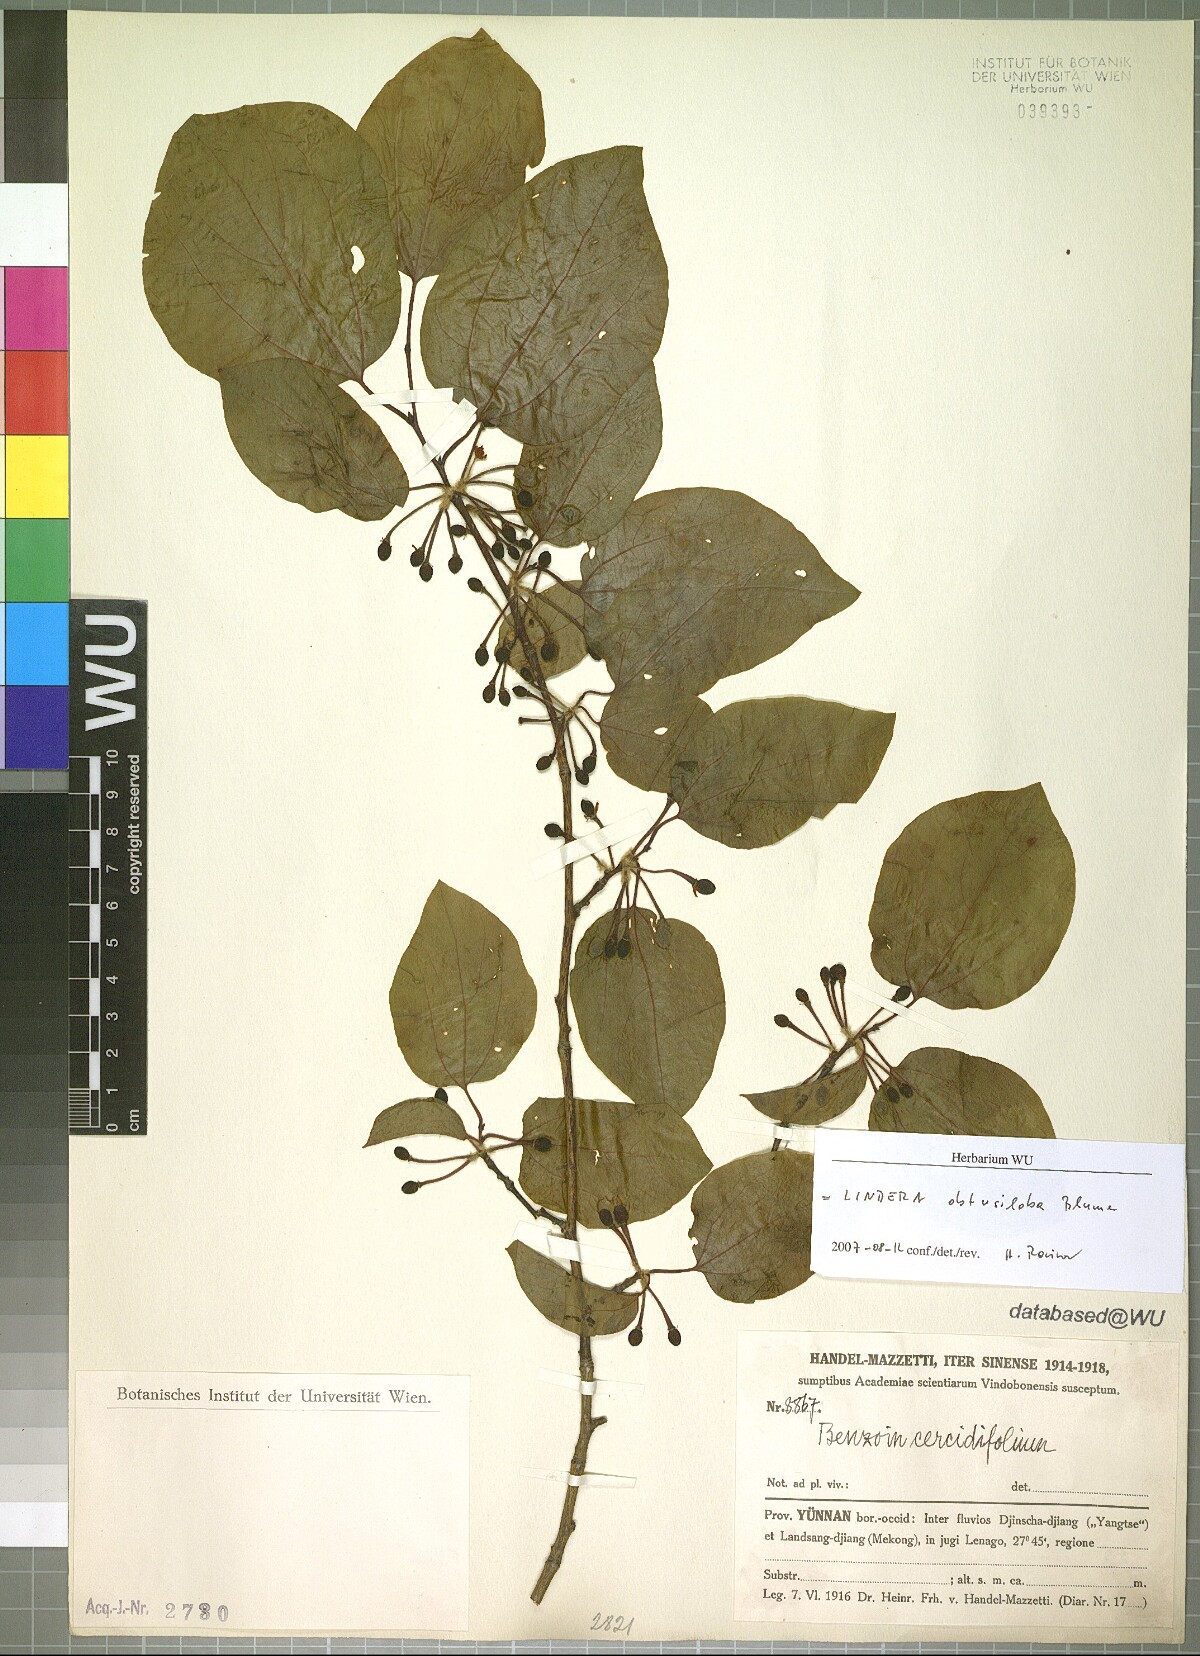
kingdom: Plantae
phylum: Tracheophyta
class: Magnoliopsida
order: Laurales
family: Lauraceae
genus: Lindera
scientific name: Lindera obtusiloba
